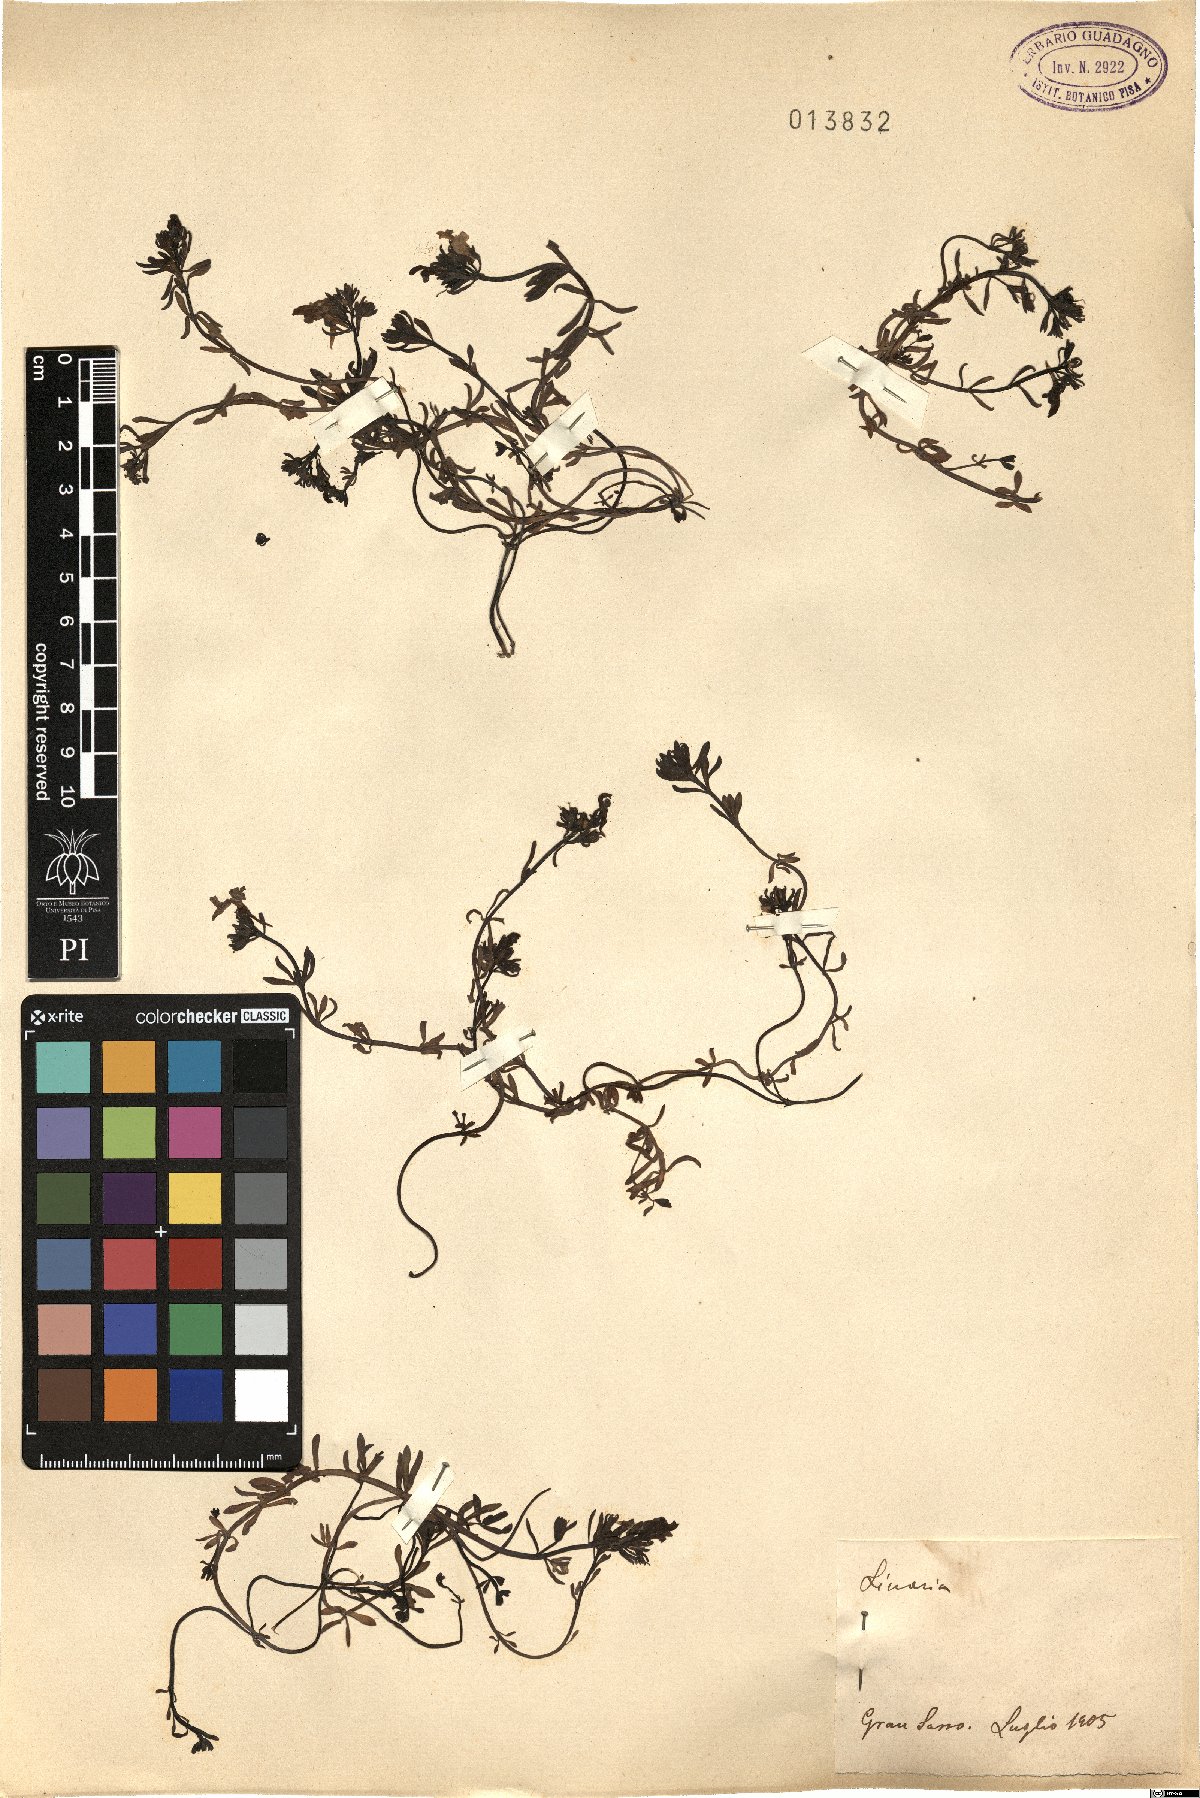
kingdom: Plantae
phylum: Tracheophyta
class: Magnoliopsida
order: Lamiales
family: Plantaginaceae
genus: Linaria
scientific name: Linaria
